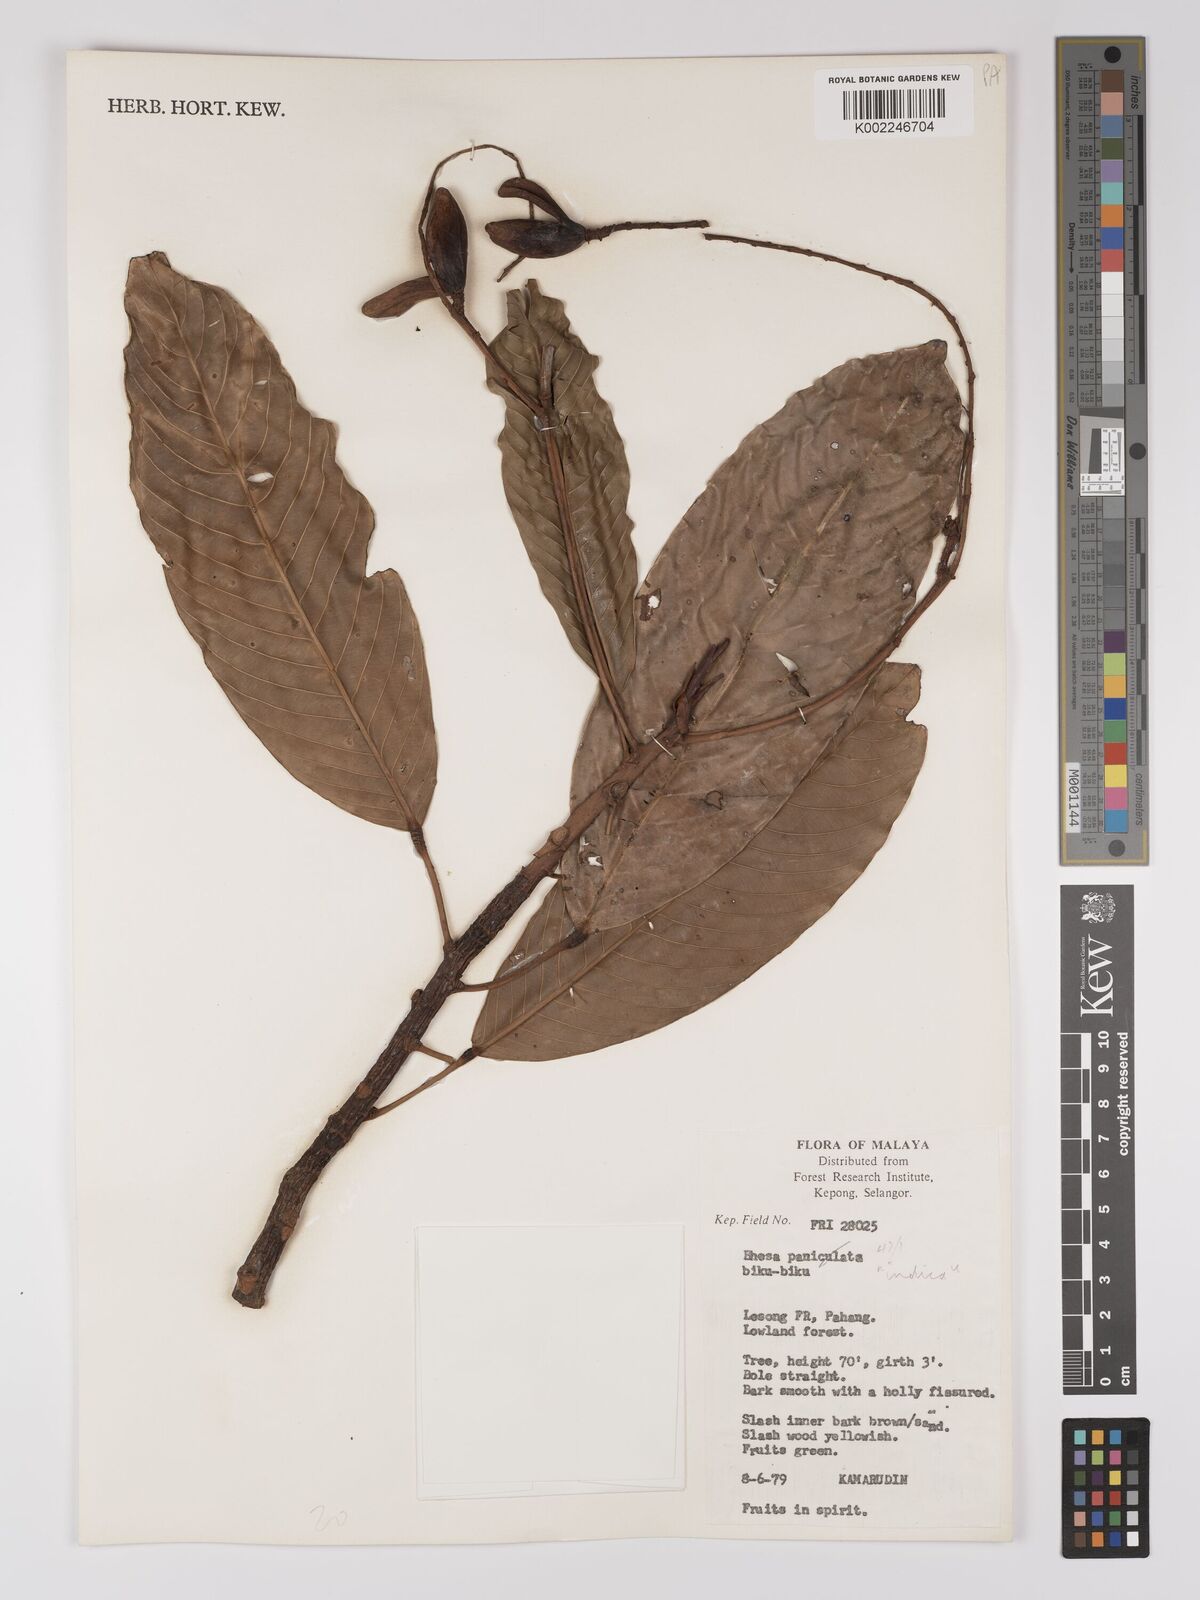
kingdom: Plantae
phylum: Tracheophyta
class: Magnoliopsida
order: Malpighiales
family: Centroplacaceae
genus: Bhesa
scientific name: Bhesa indica
